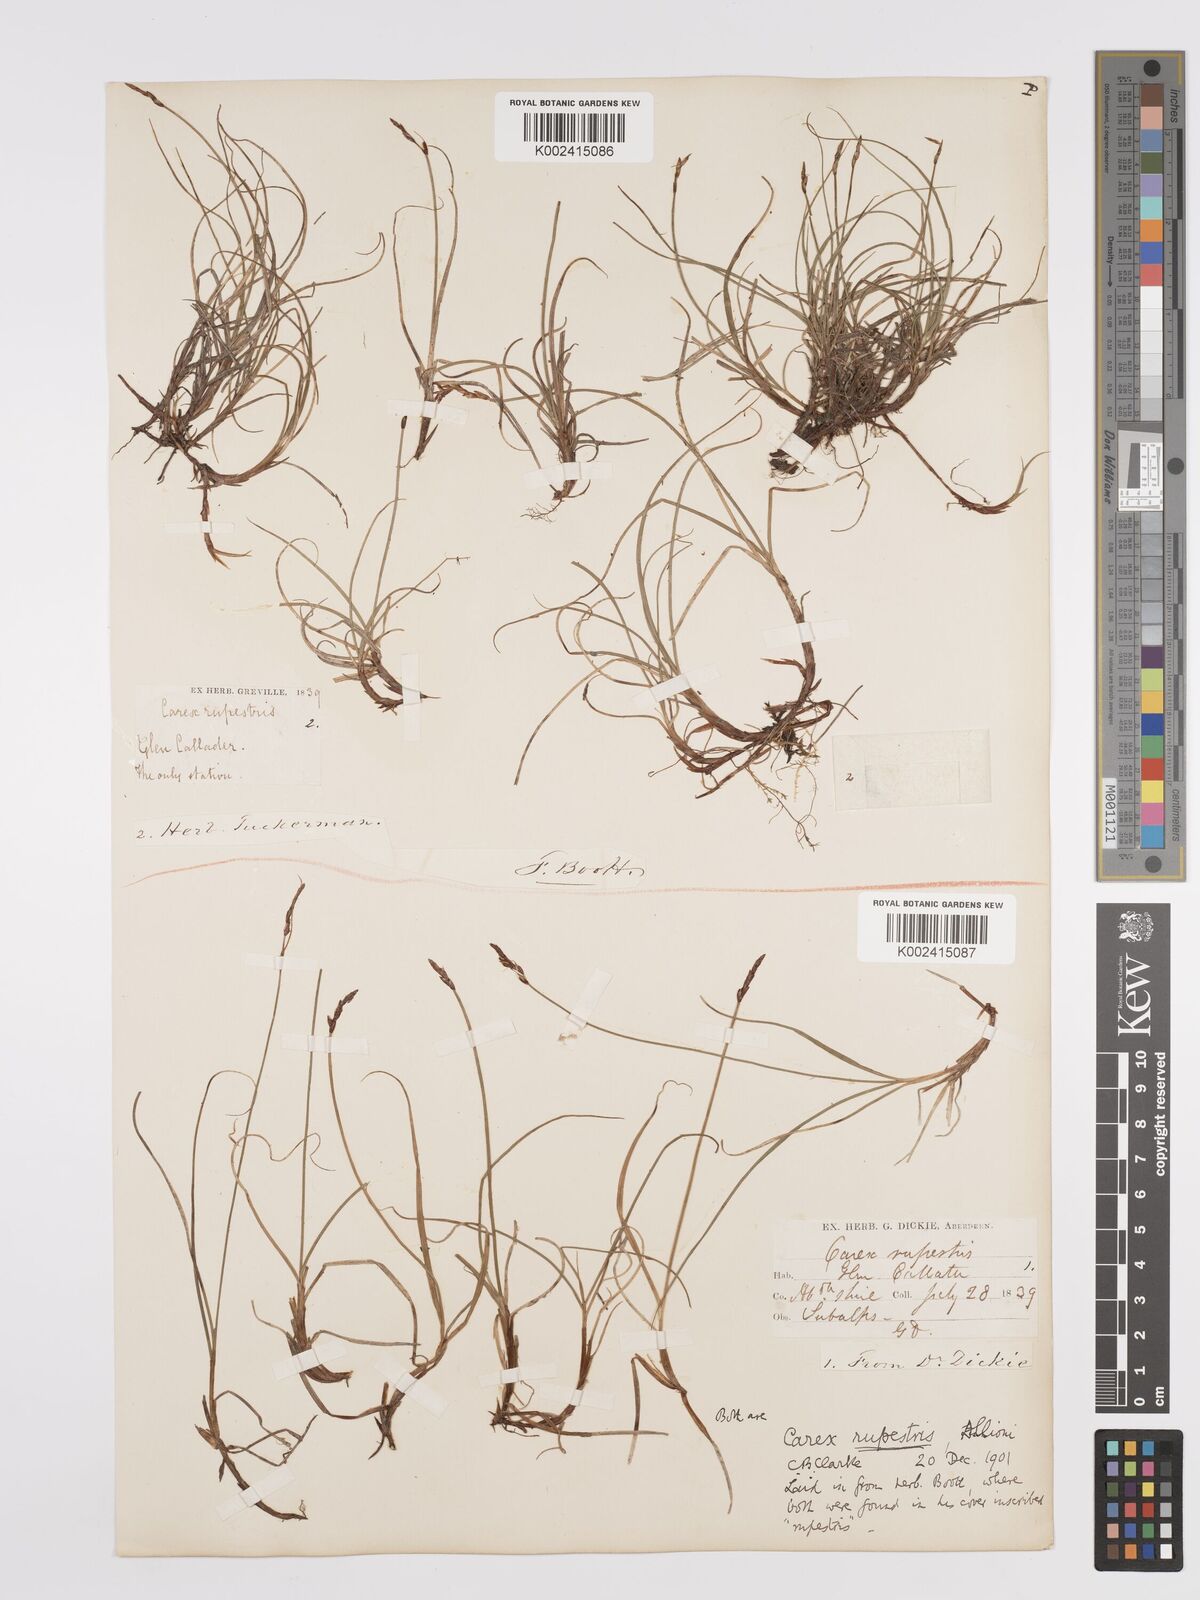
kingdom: Plantae
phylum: Tracheophyta
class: Liliopsida
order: Poales
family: Cyperaceae
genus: Carex
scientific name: Carex rupestris
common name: Rock sedge
